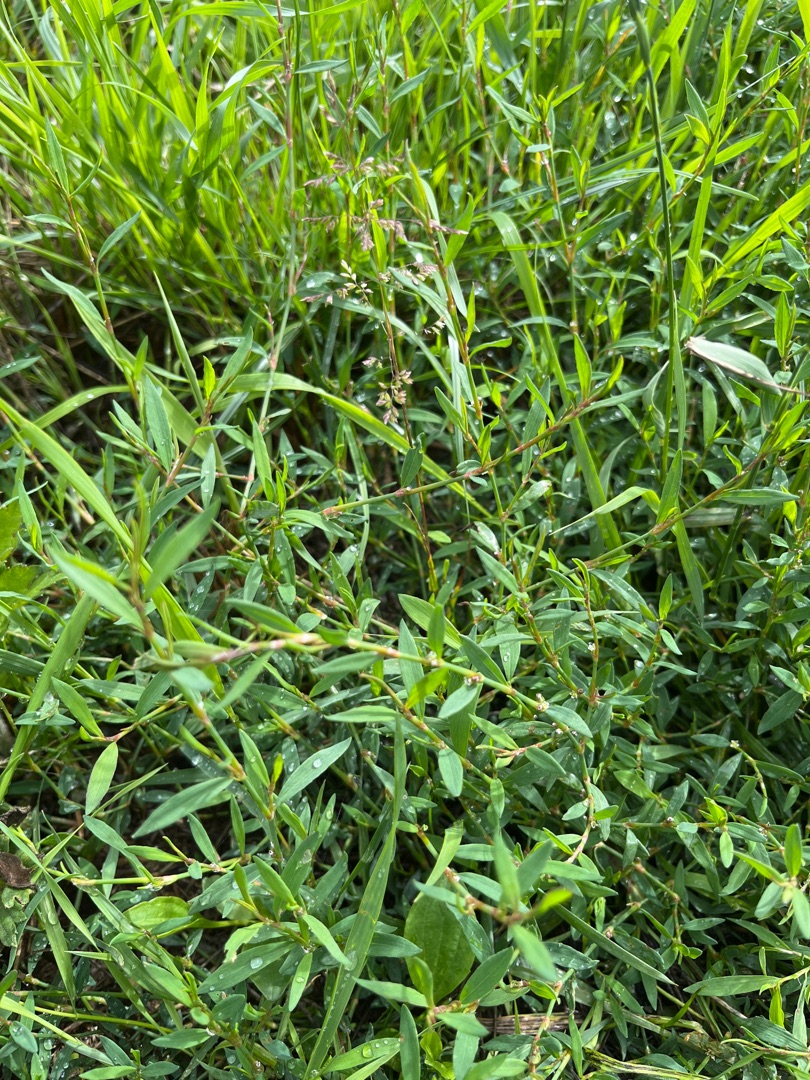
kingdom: Plantae
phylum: Tracheophyta
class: Magnoliopsida
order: Caryophyllales
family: Polygonaceae
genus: Polygonum
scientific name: Polygonum aviculare
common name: Vej-pileurt
